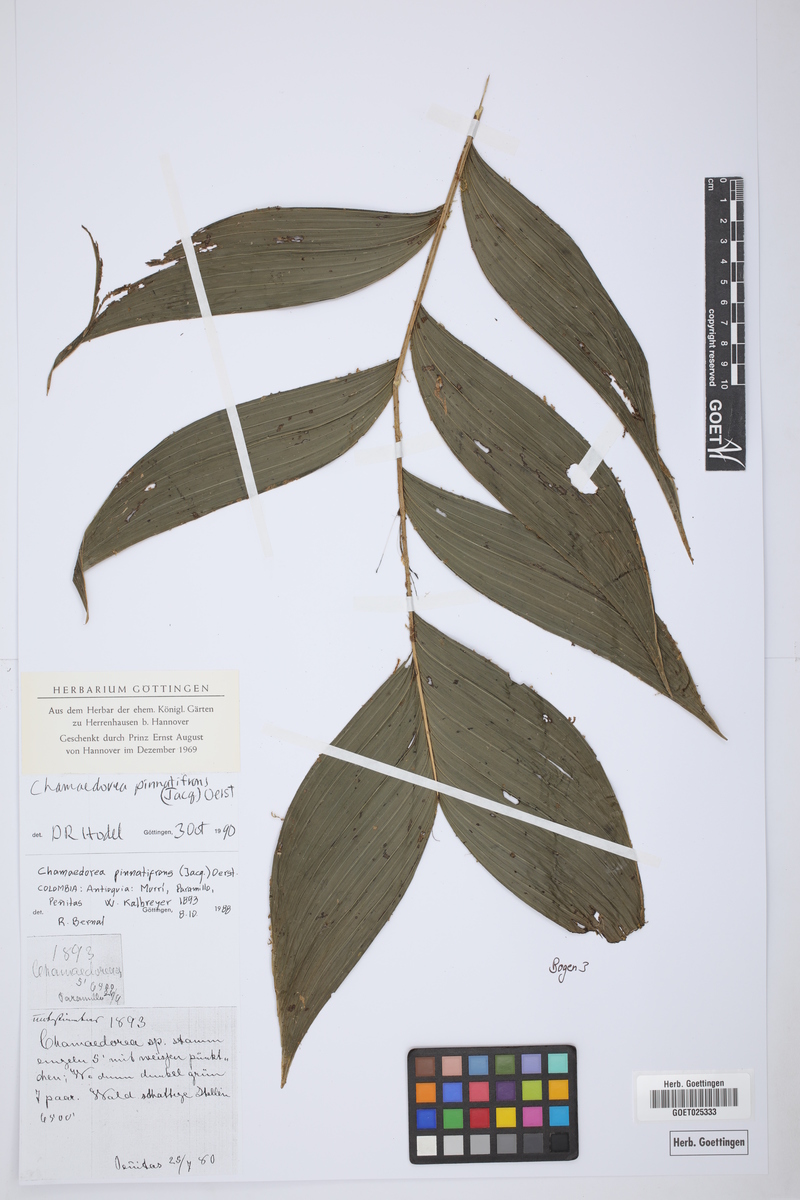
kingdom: Plantae
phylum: Tracheophyta
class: Liliopsida
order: Arecales
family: Arecaceae
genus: Chamaedorea
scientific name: Chamaedorea pinnatifrons
